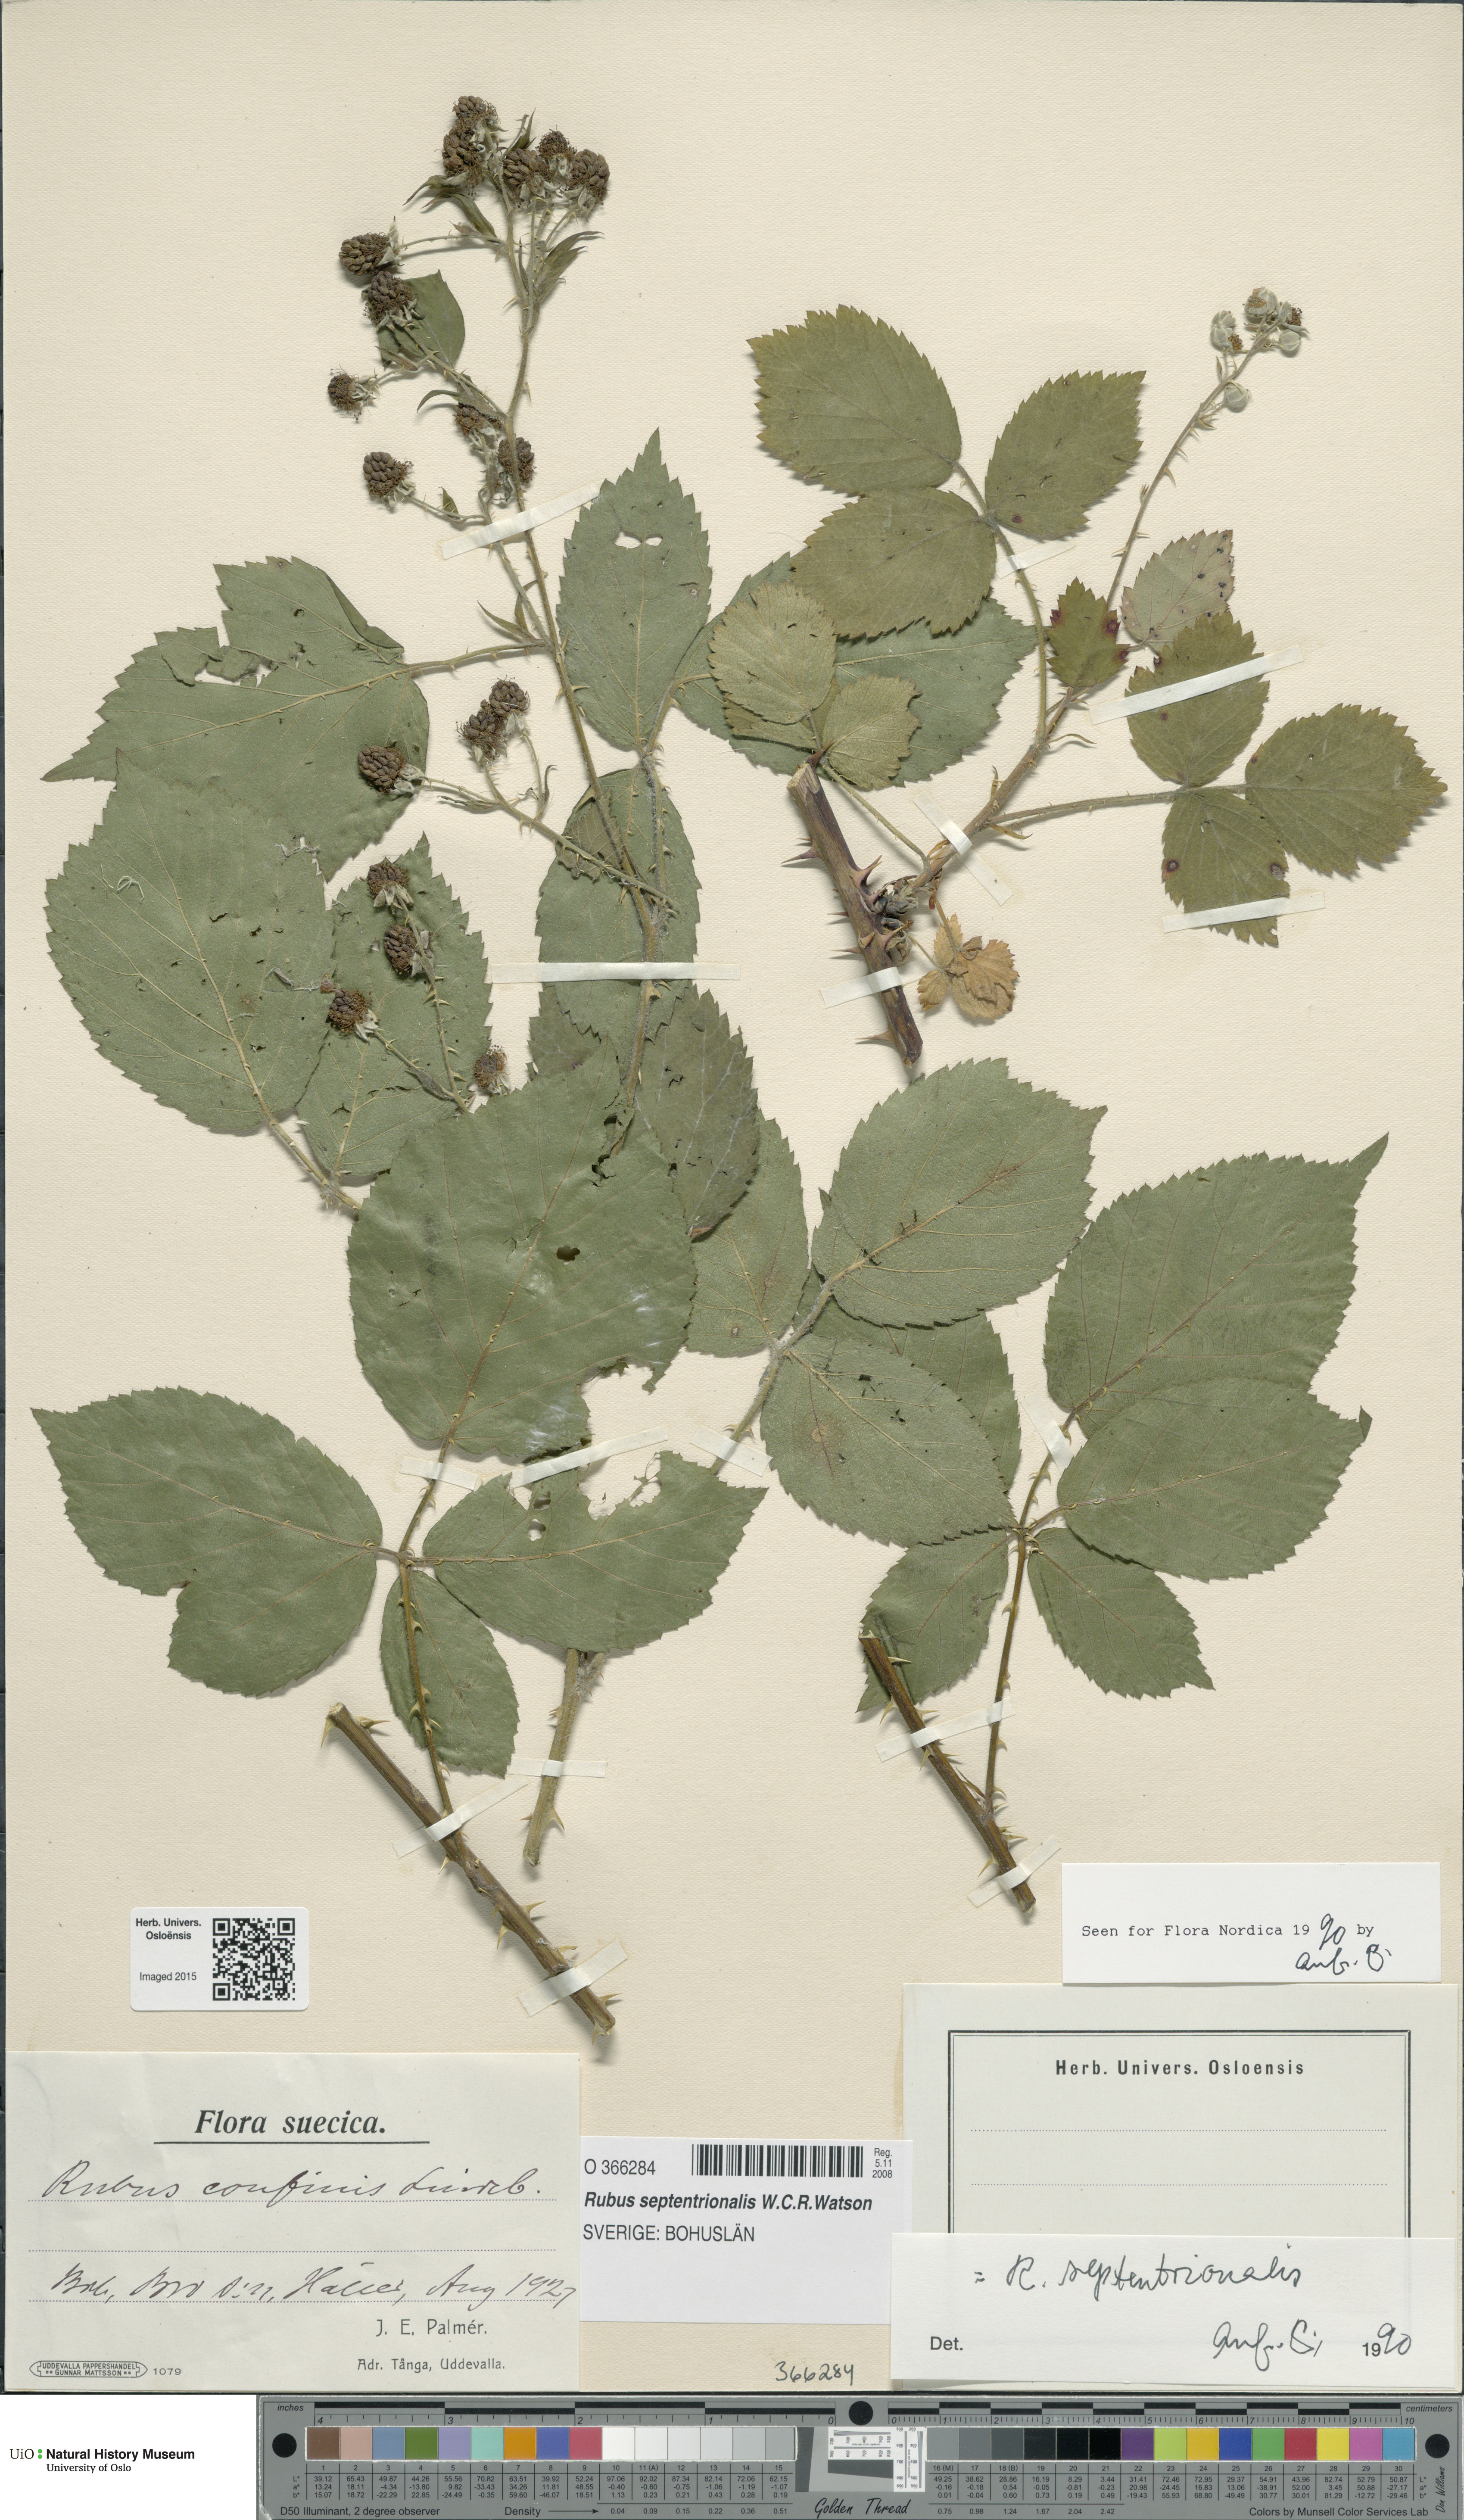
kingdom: Plantae
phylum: Tracheophyta
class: Magnoliopsida
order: Rosales
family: Rosaceae
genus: Rubus
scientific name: Rubus septentrionalis
